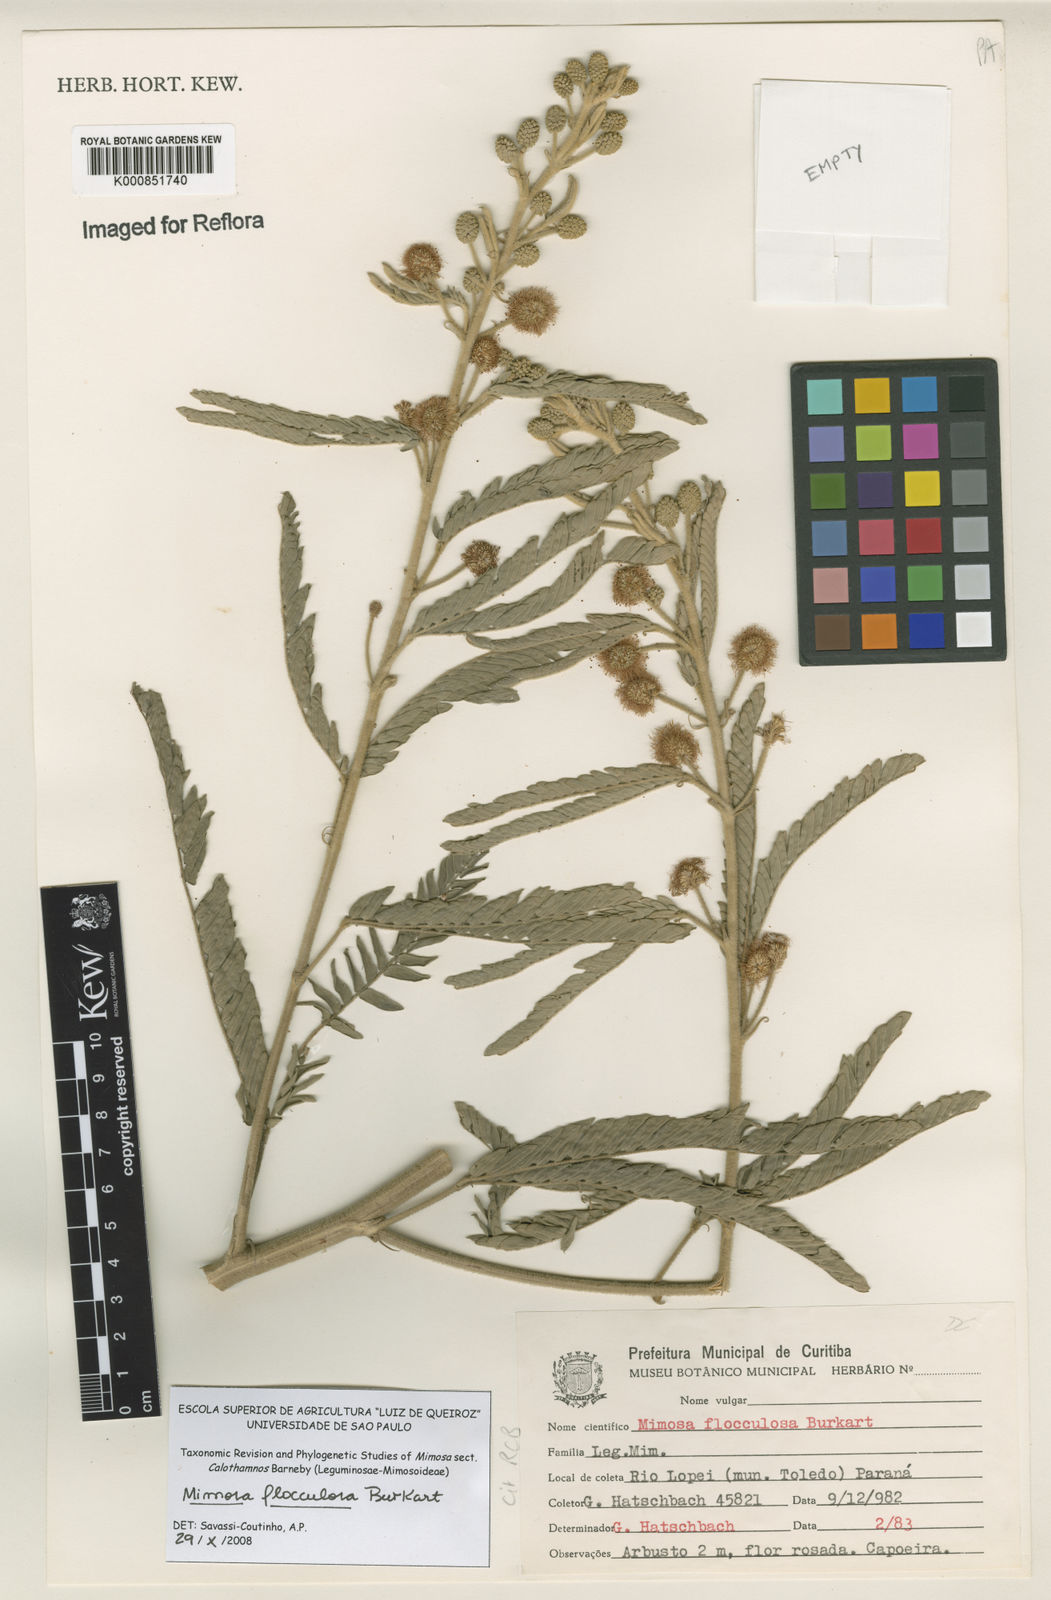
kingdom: Plantae
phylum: Tracheophyta
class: Magnoliopsida
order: Fabales
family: Fabaceae
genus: Mimosa
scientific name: Mimosa flocculosa
